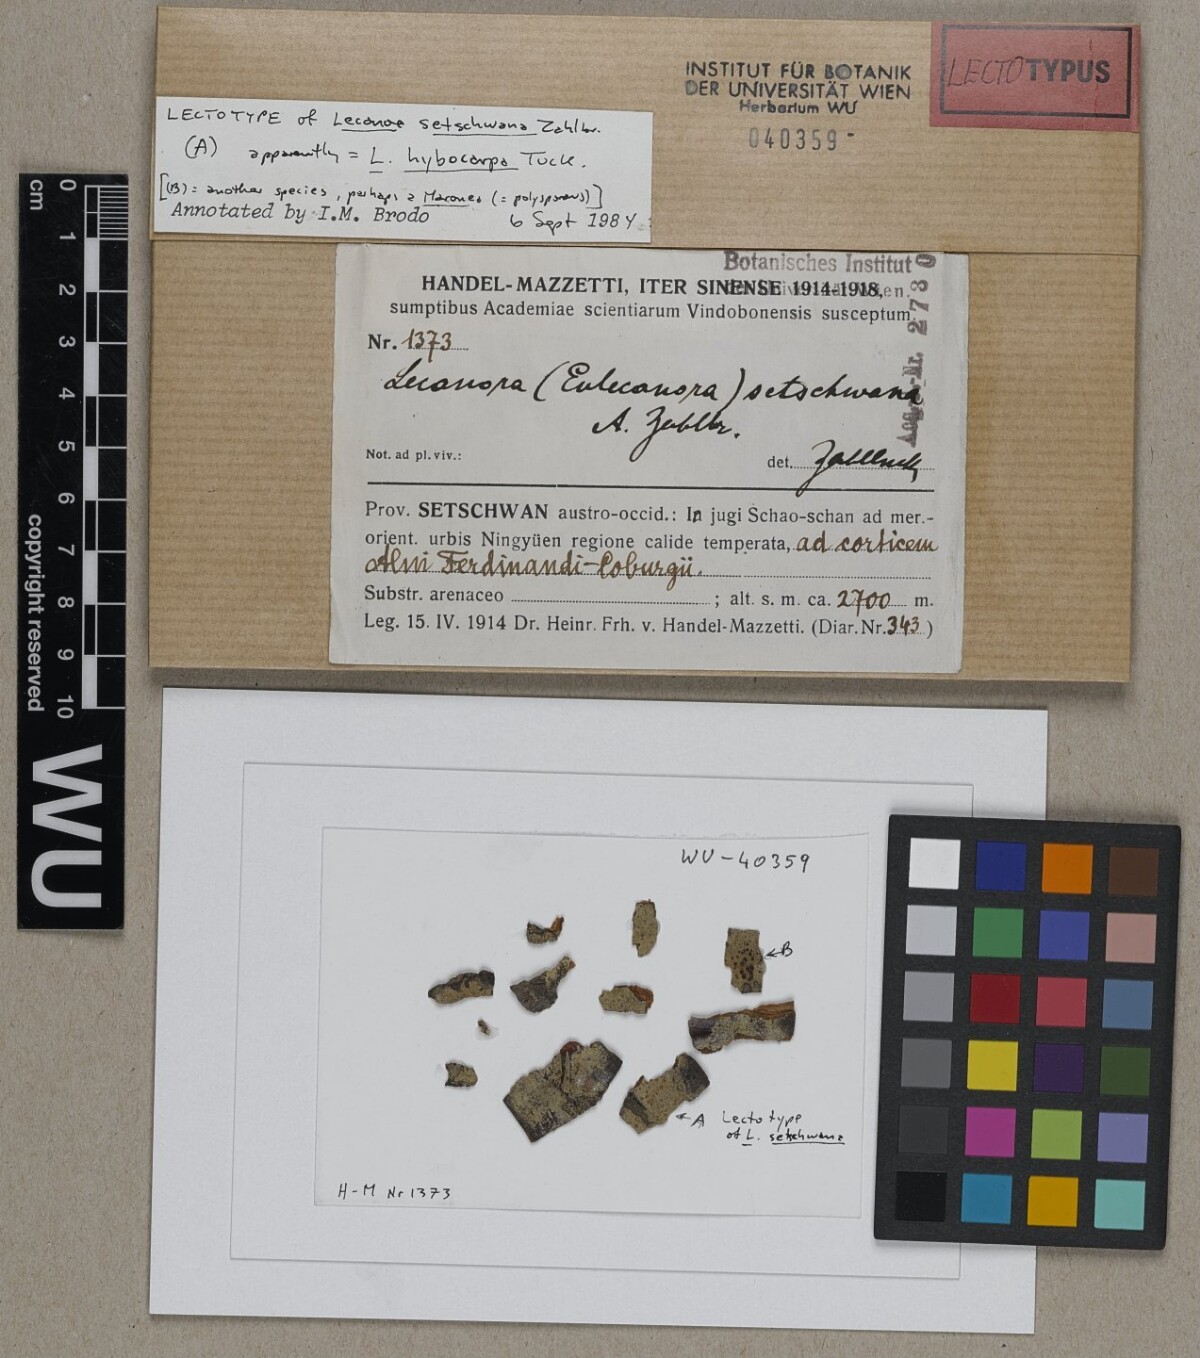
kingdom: Fungi
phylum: Ascomycota
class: Lecanoromycetes
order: Lecanorales
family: Lecanoraceae
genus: Lecanora
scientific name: Lecanora
